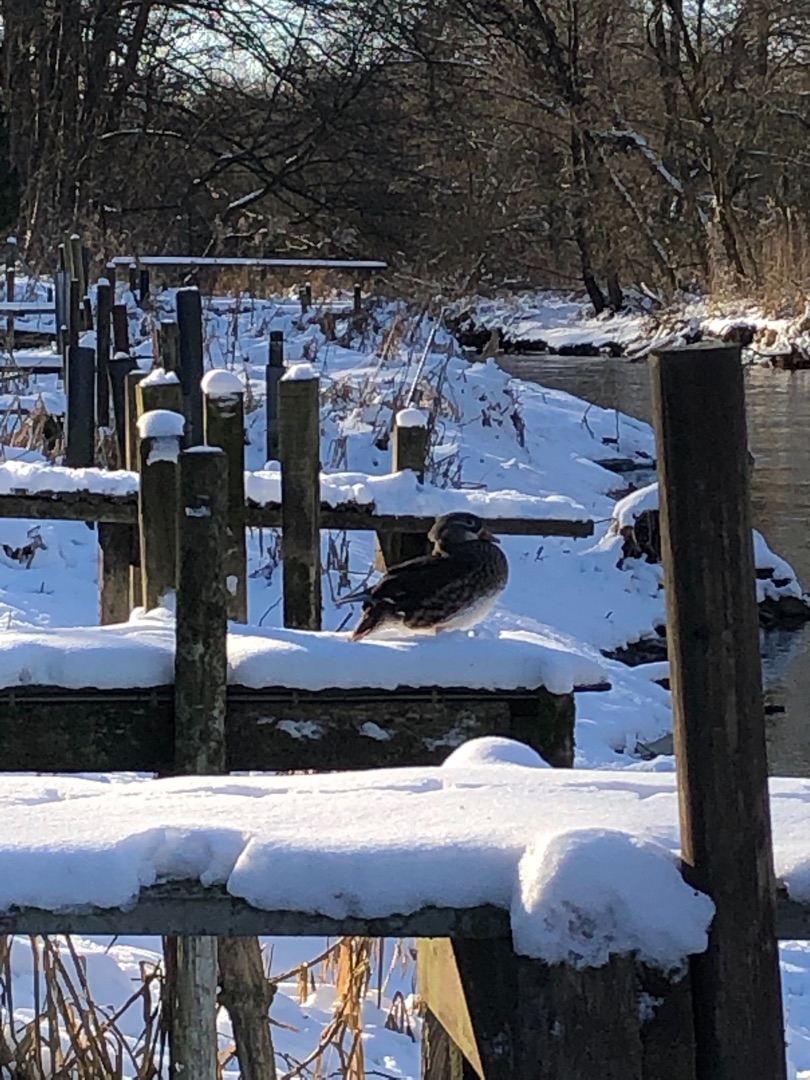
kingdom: Animalia
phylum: Chordata
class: Aves
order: Anseriformes
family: Anatidae
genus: Aix
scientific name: Aix galericulata
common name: Mandarinand
